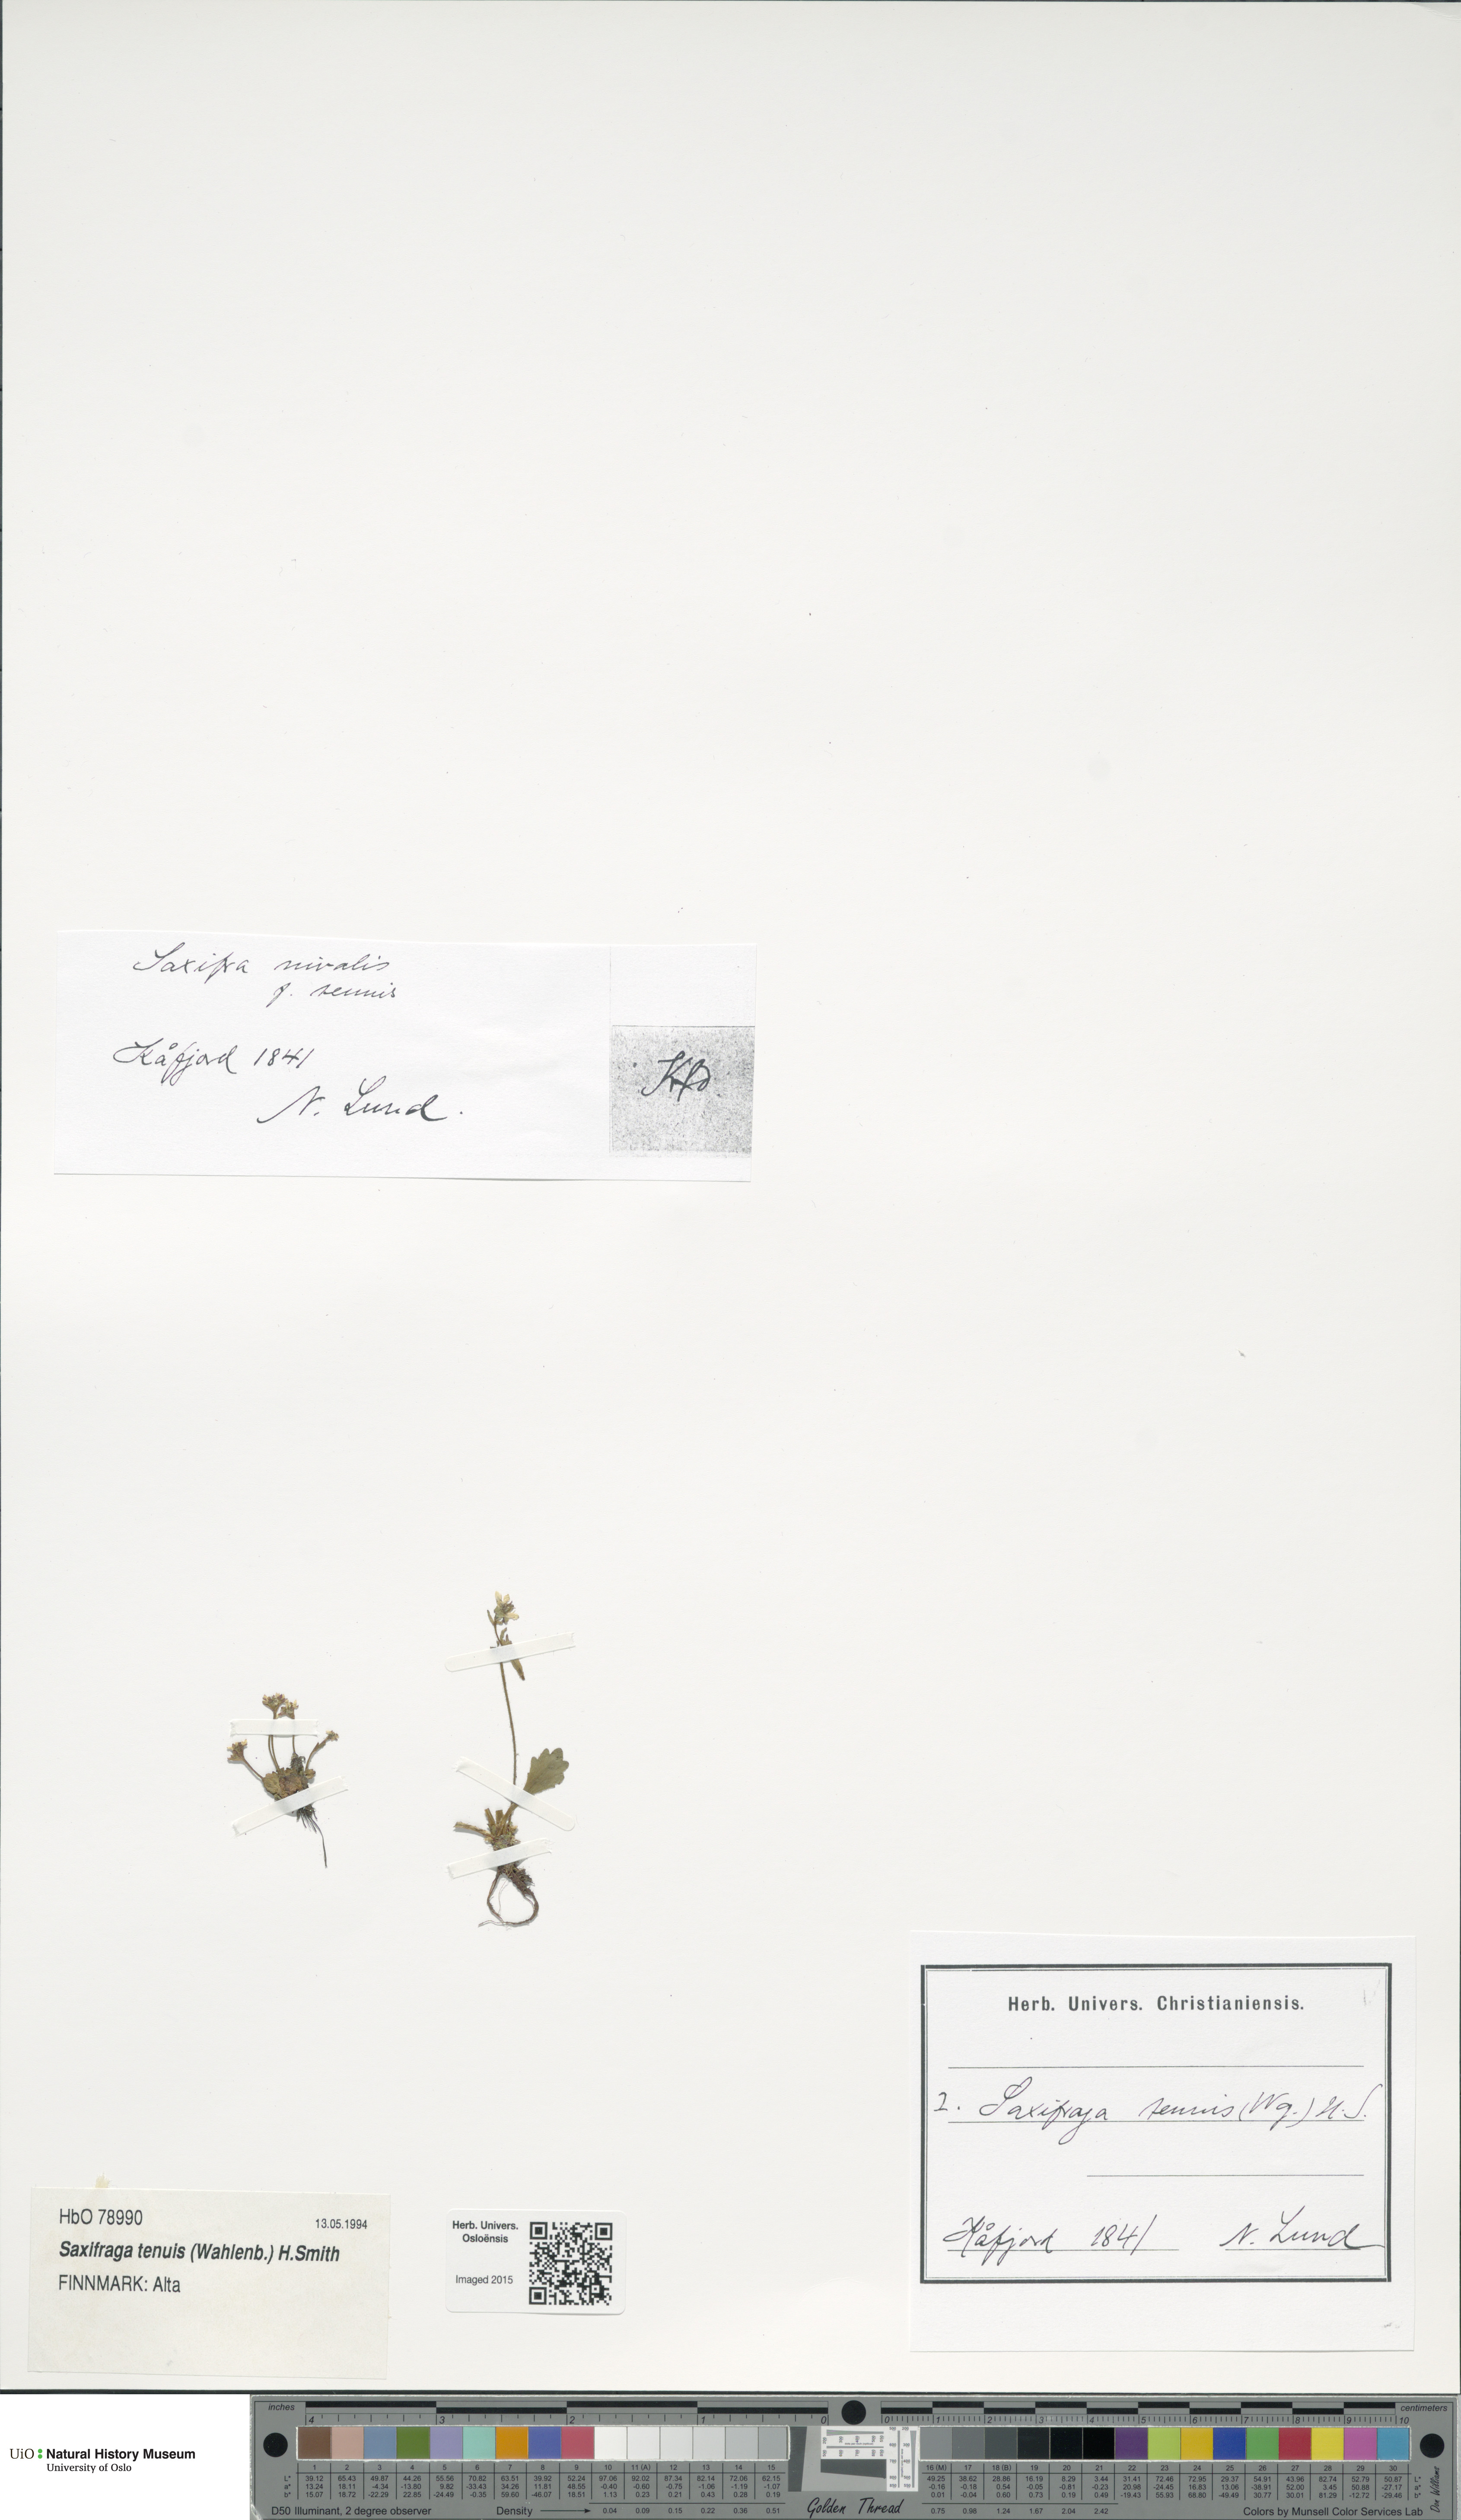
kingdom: Plantae
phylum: Tracheophyta
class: Magnoliopsida
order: Saxifragales
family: Saxifragaceae
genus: Micranthes
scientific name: Micranthes tenuis
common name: Ottertail pass saxifrage
